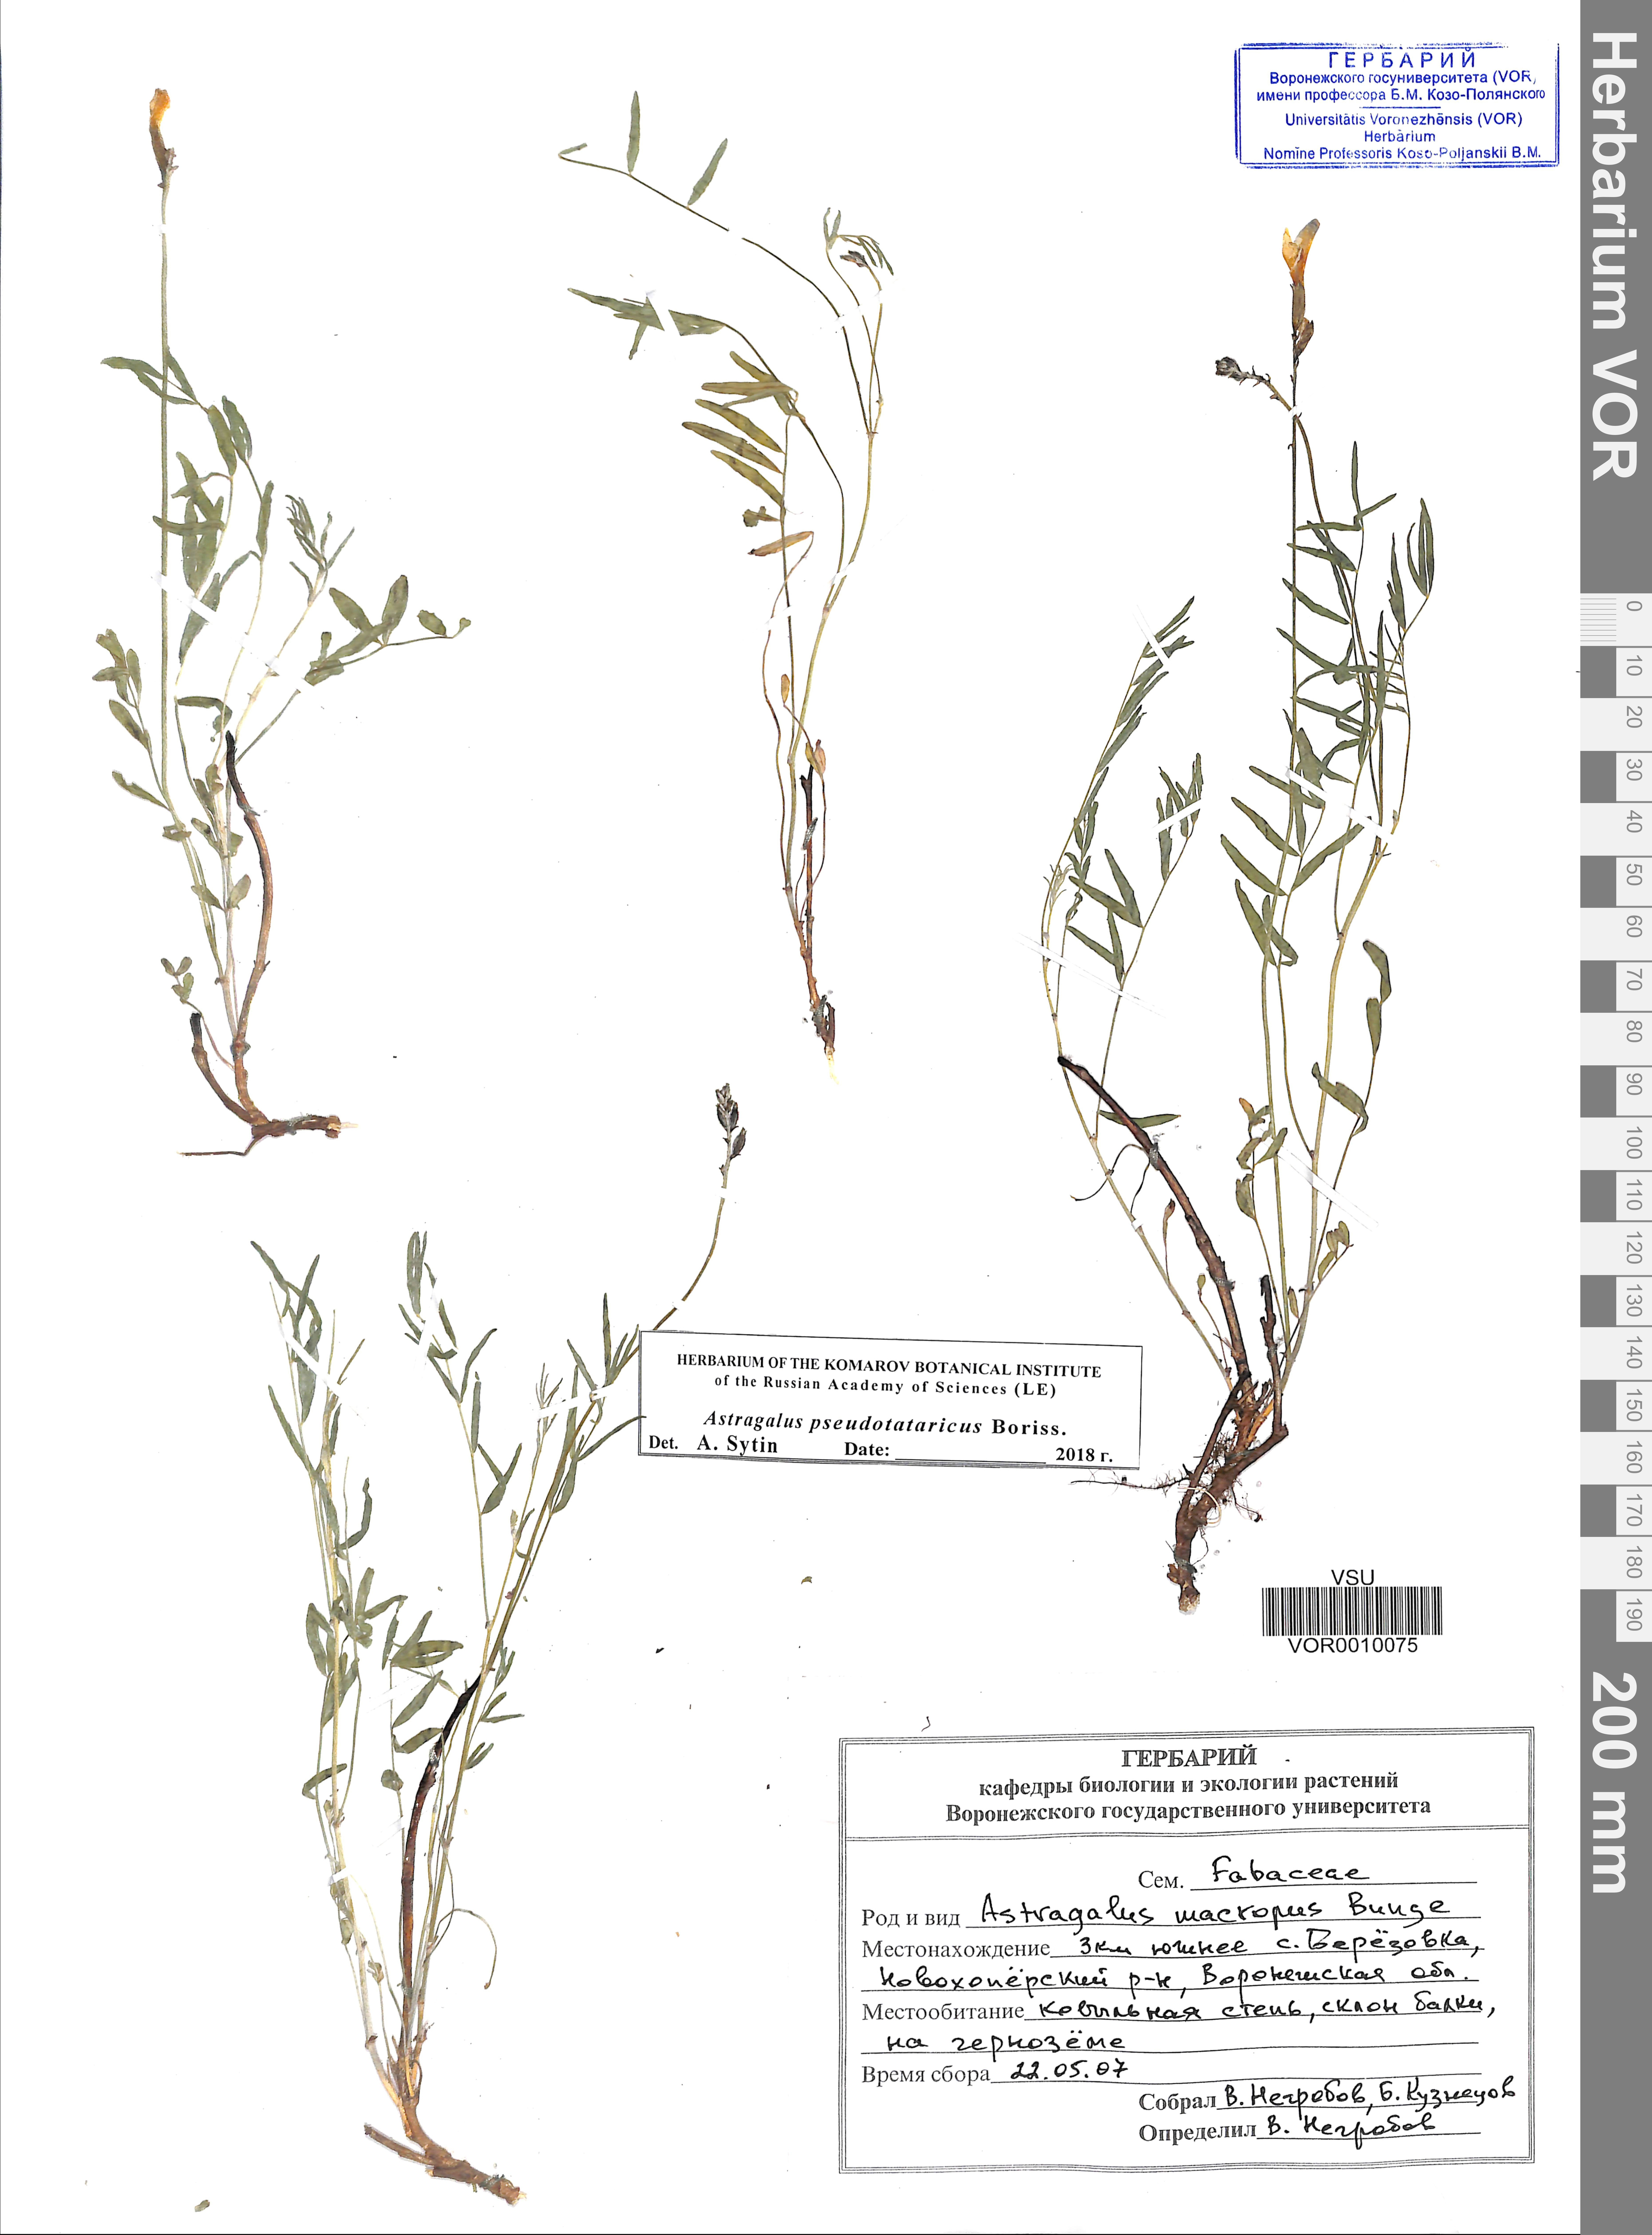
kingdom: Plantae
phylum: Tracheophyta
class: Magnoliopsida
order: Fabales
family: Fabaceae
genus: Astragalus
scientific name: Astragalus pseudotataricus
